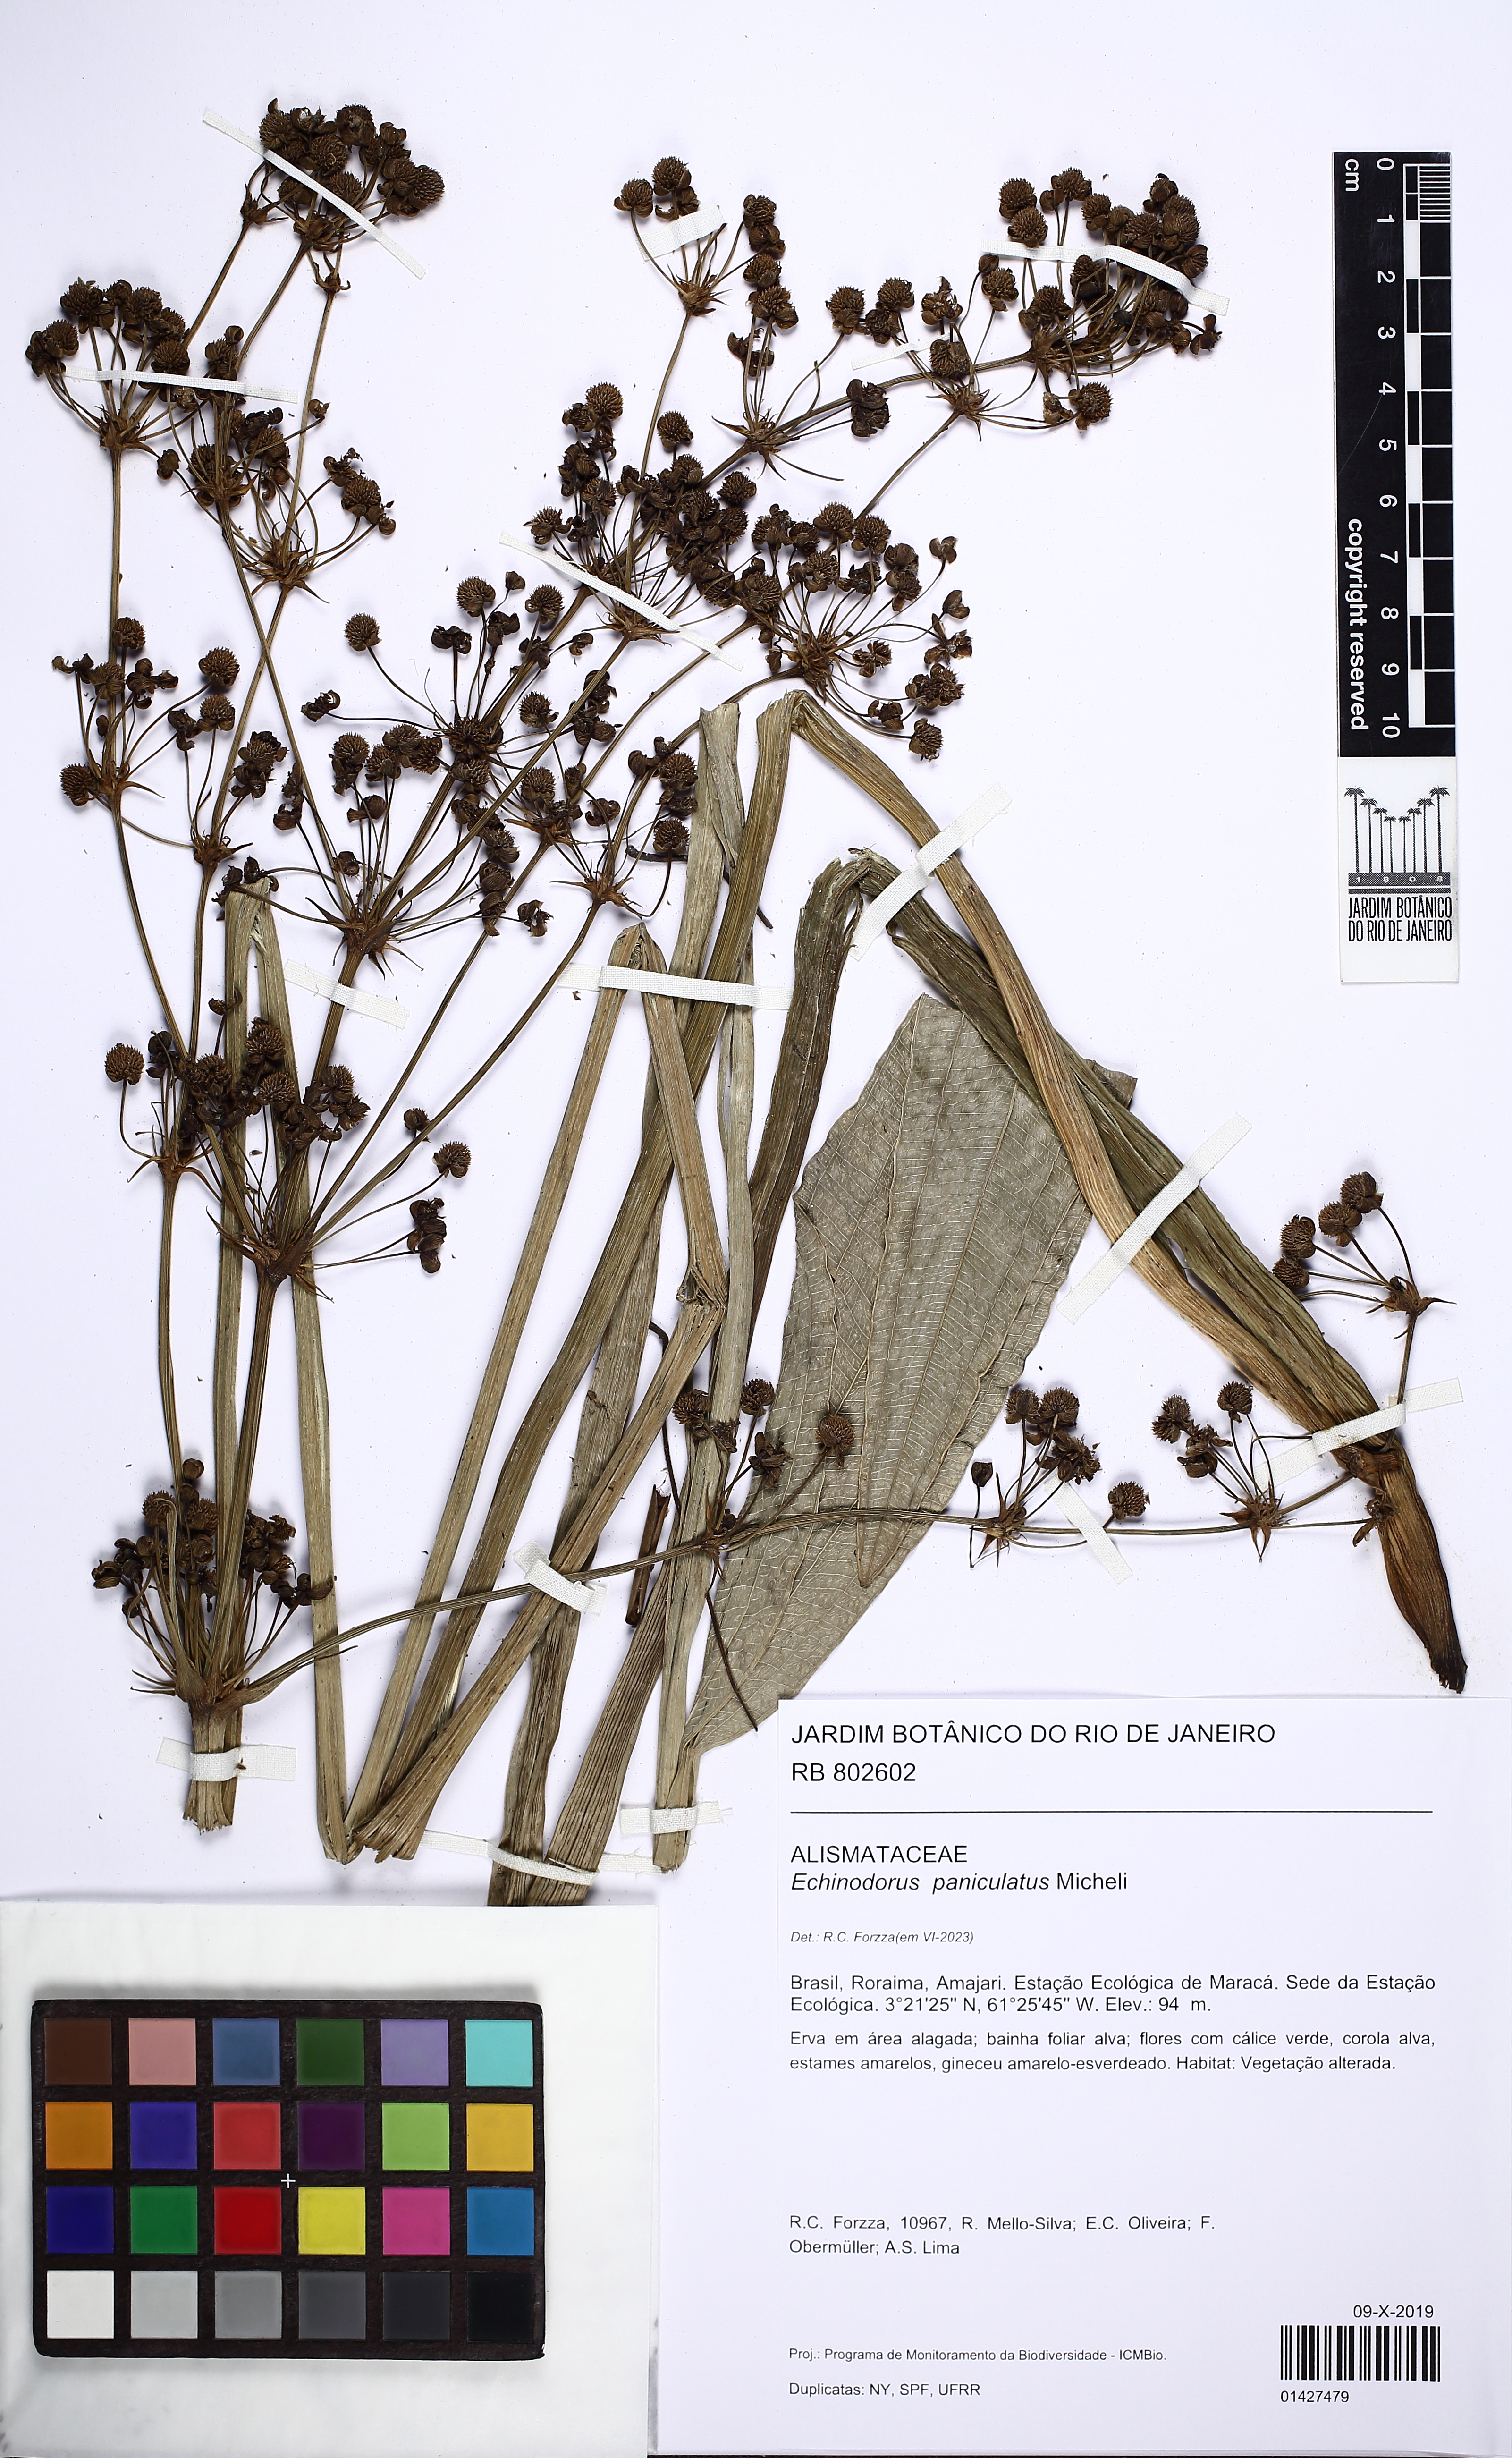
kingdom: Plantae
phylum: Tracheophyta
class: Liliopsida
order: Alismatales
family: Alismataceae
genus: Aquarius
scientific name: Aquarius paniculatus
